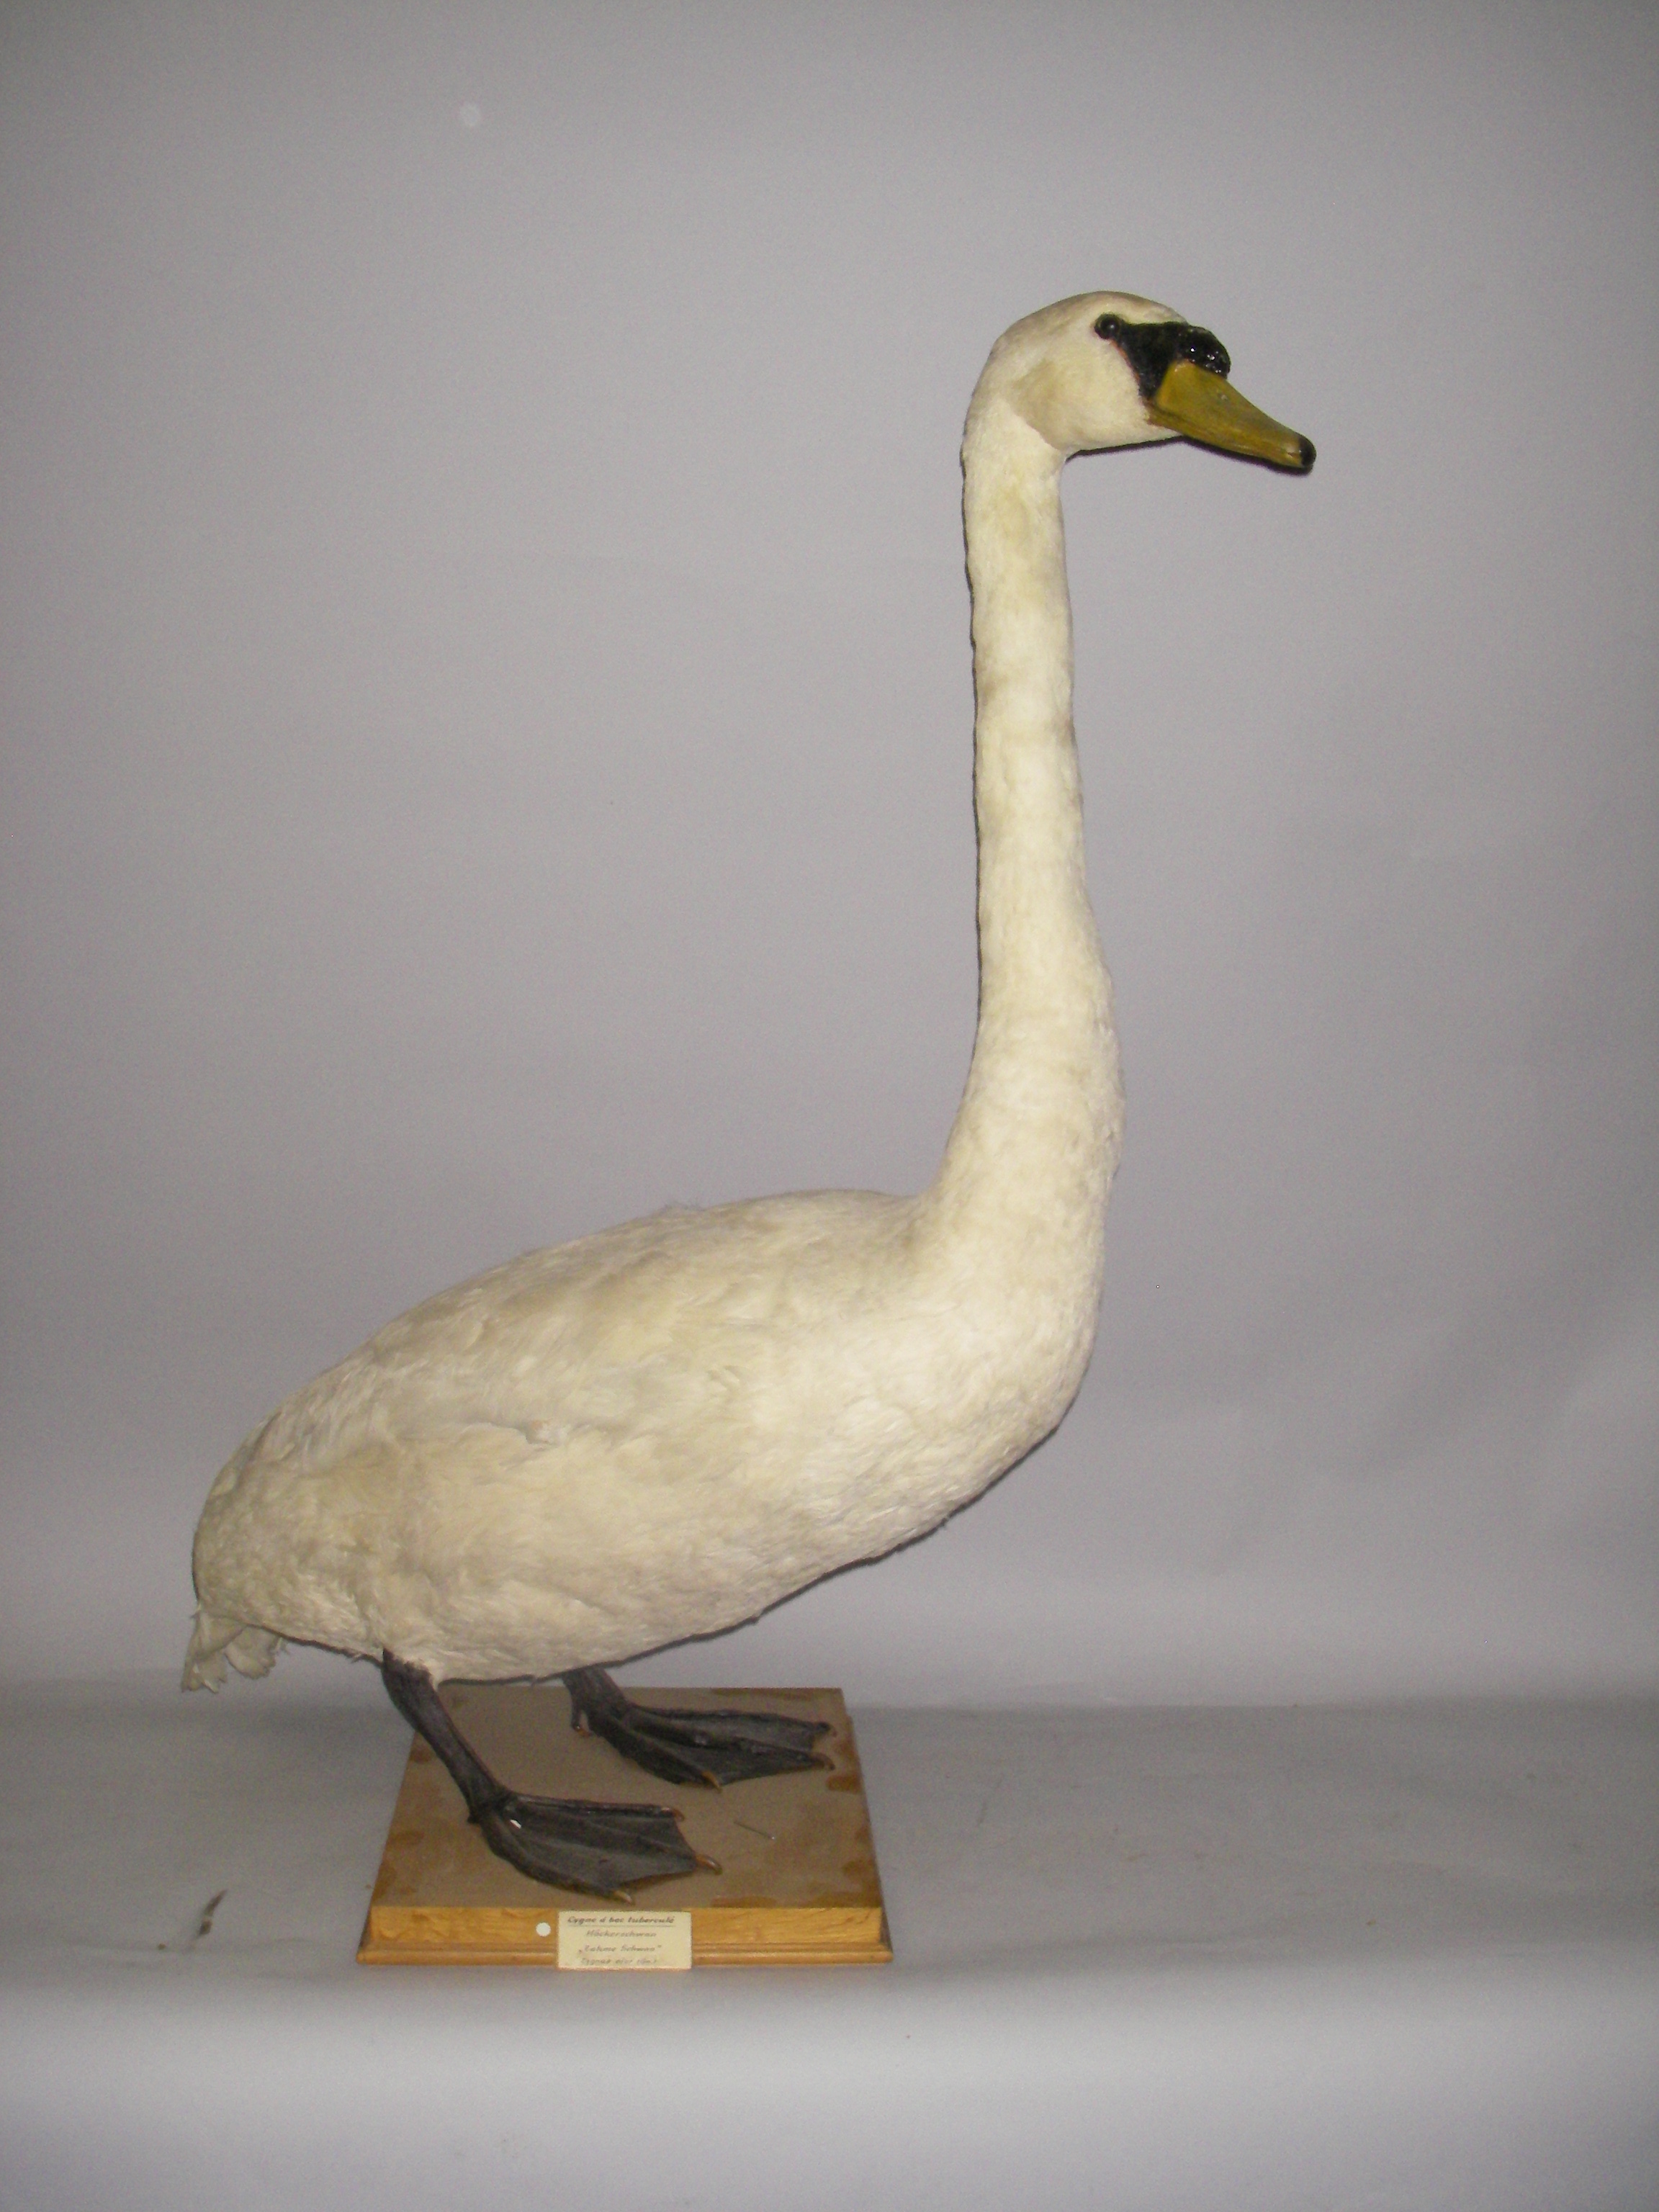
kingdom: Animalia
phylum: Chordata
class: Aves
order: Anseriformes
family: Anatidae
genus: Cygnus
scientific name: Cygnus olor
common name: Mute swan
